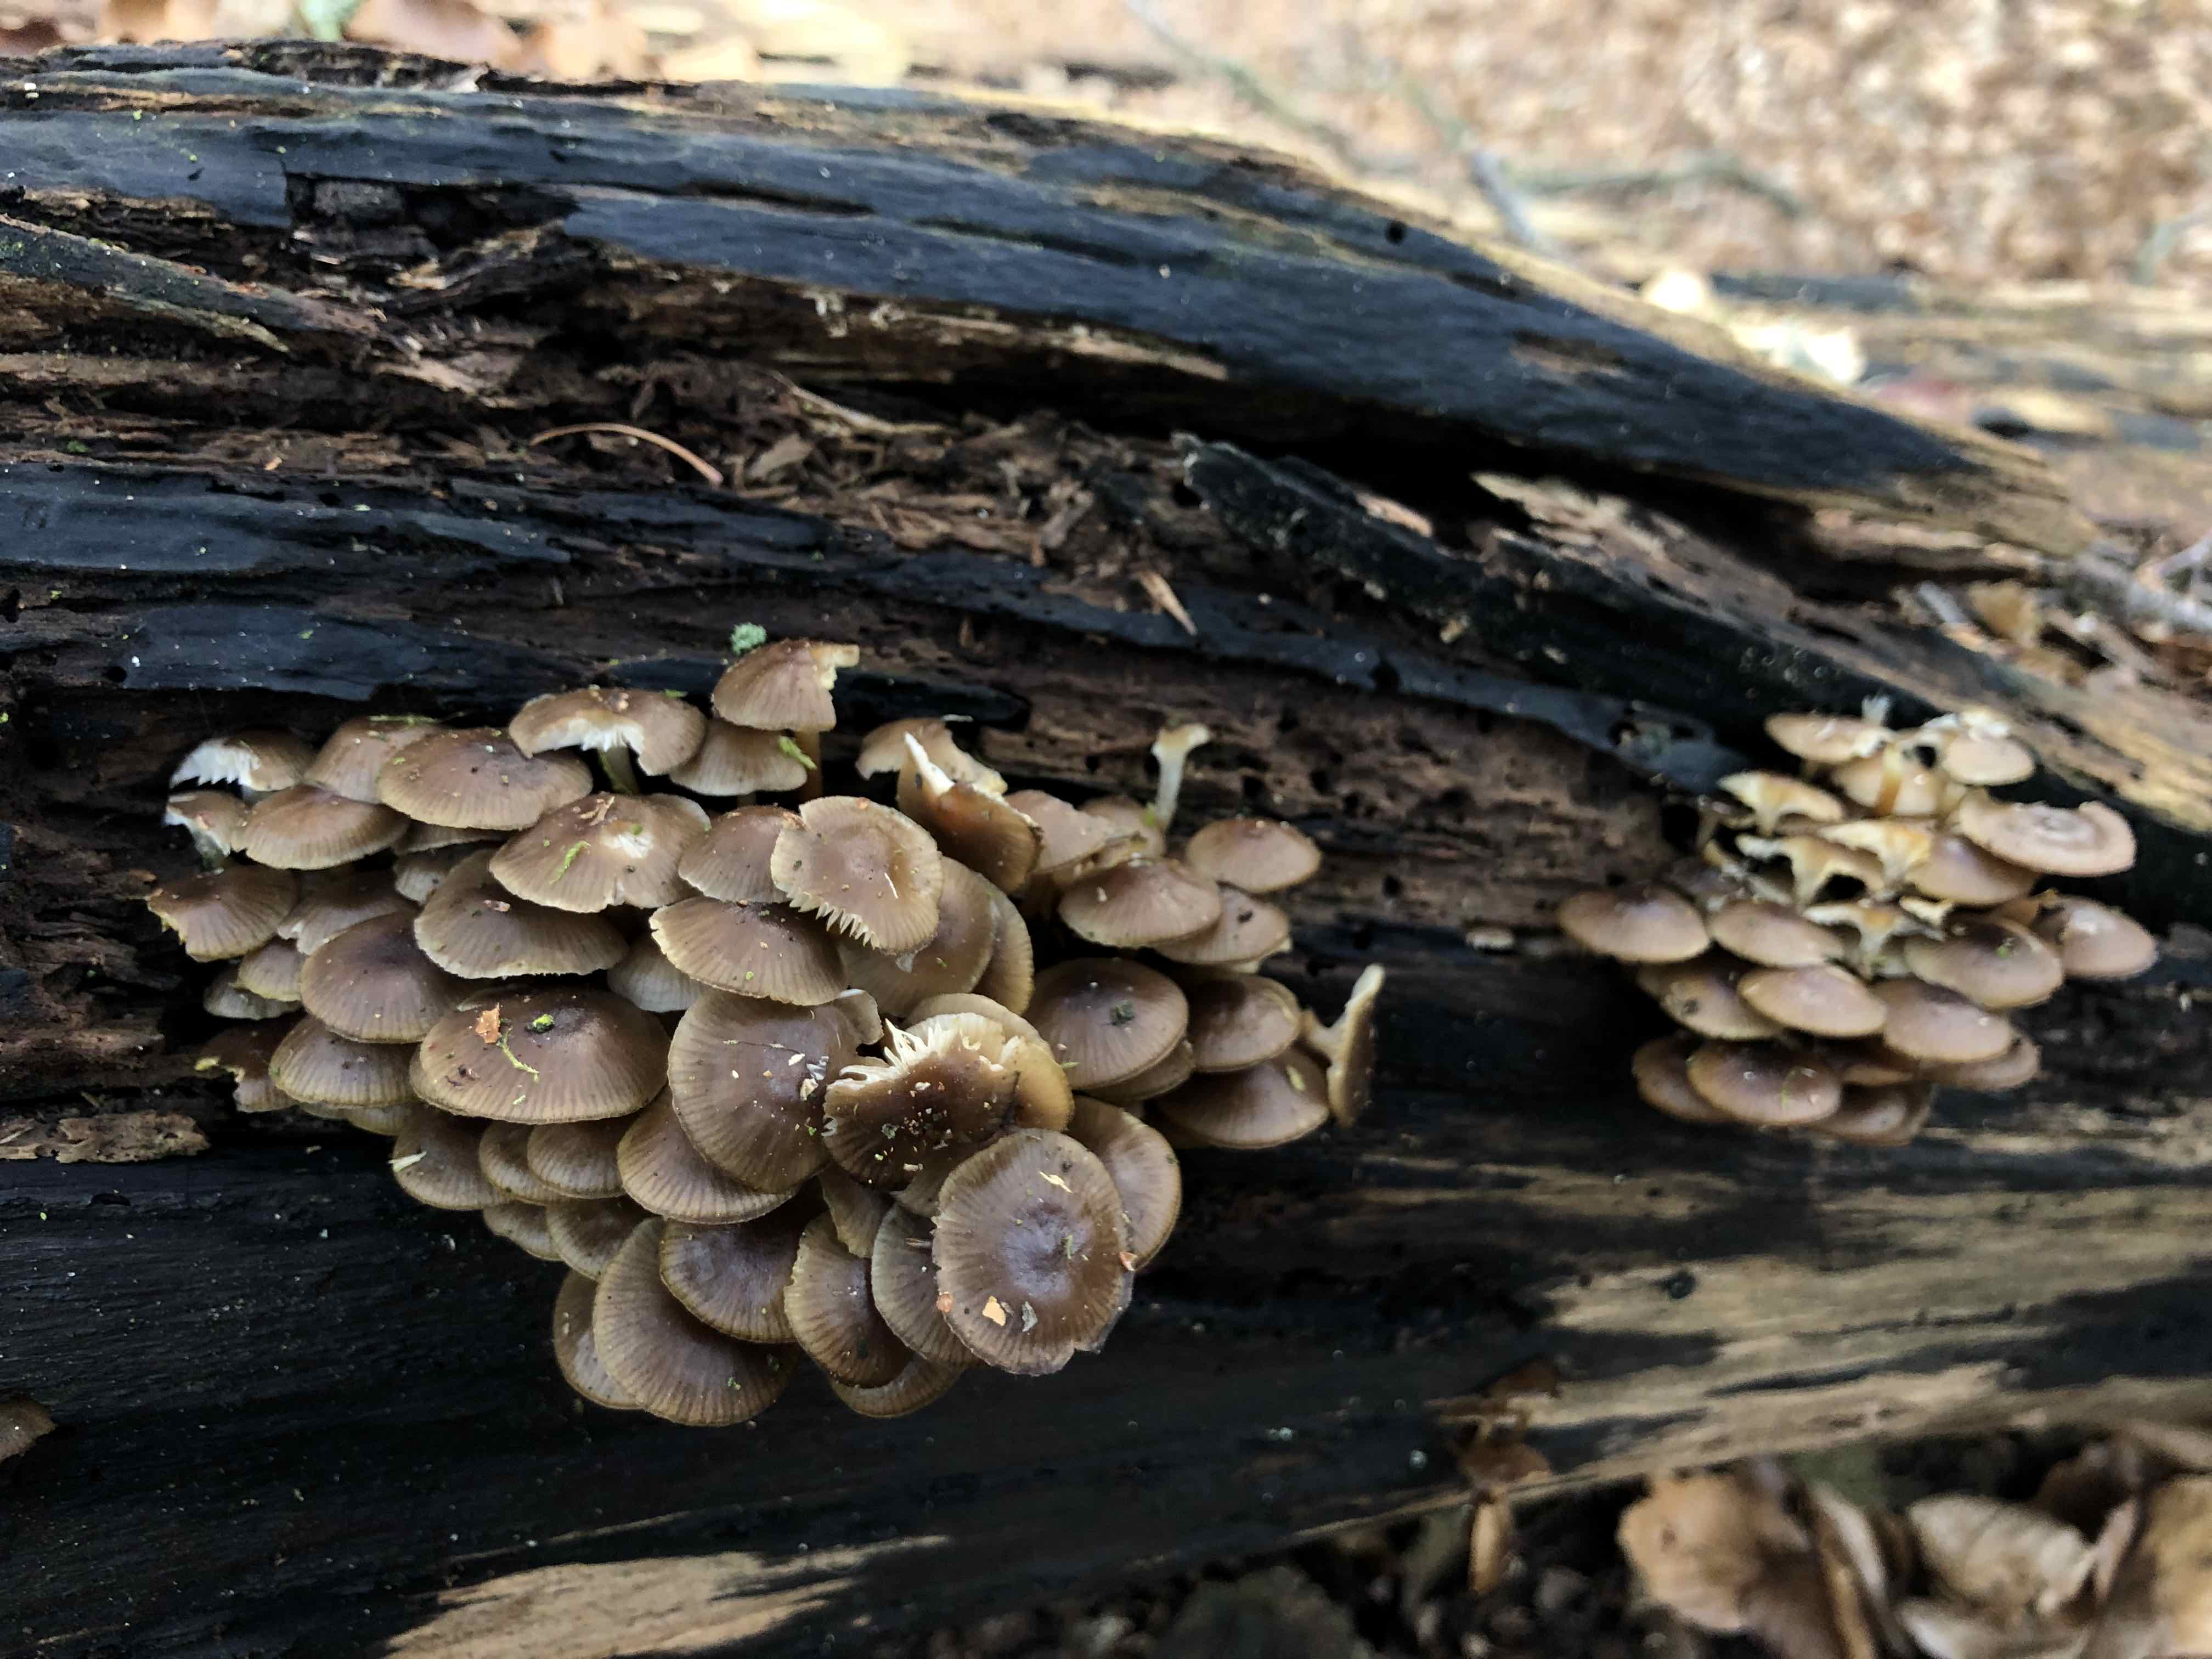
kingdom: Fungi
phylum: Basidiomycota
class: Agaricomycetes
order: Agaricales
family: Mycenaceae
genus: Mycena
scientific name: Mycena tintinnabulum
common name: vinter-huesvamp
